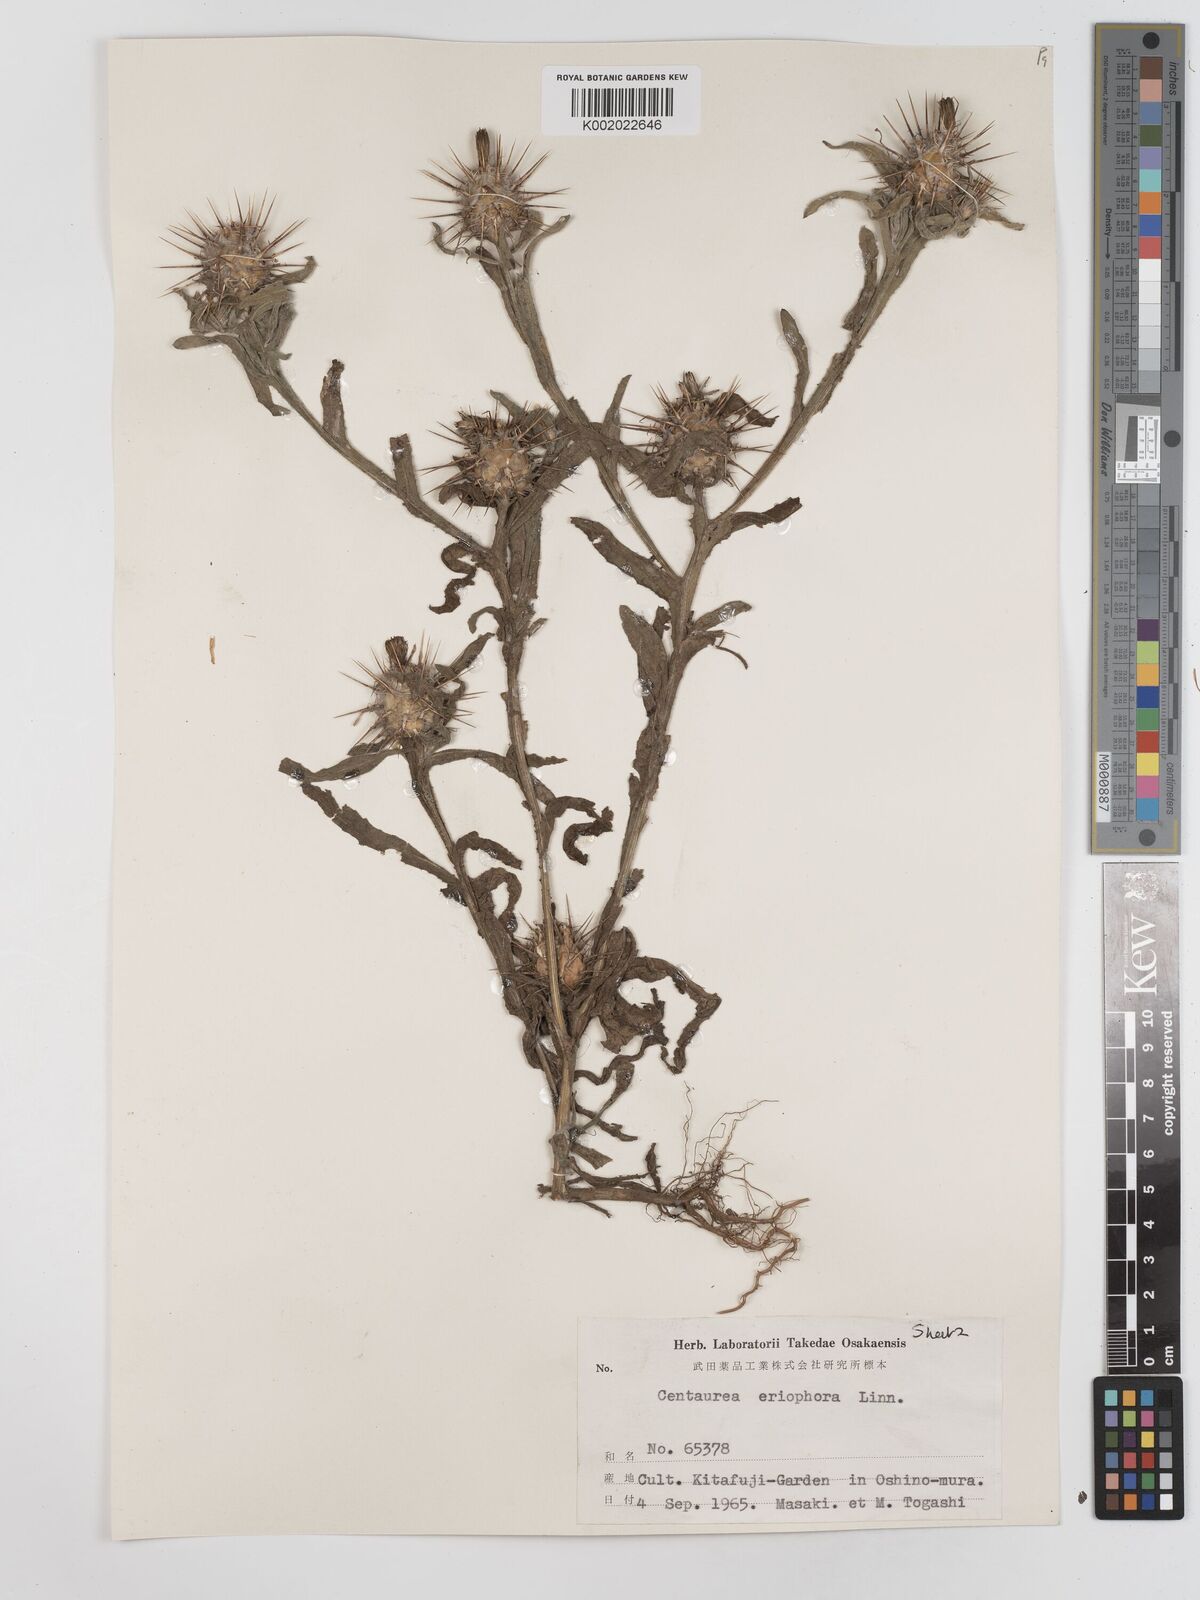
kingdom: Plantae
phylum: Tracheophyta
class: Magnoliopsida
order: Asterales
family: Asteraceae
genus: Centaurea
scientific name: Centaurea eriophora
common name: Wild sandheath
